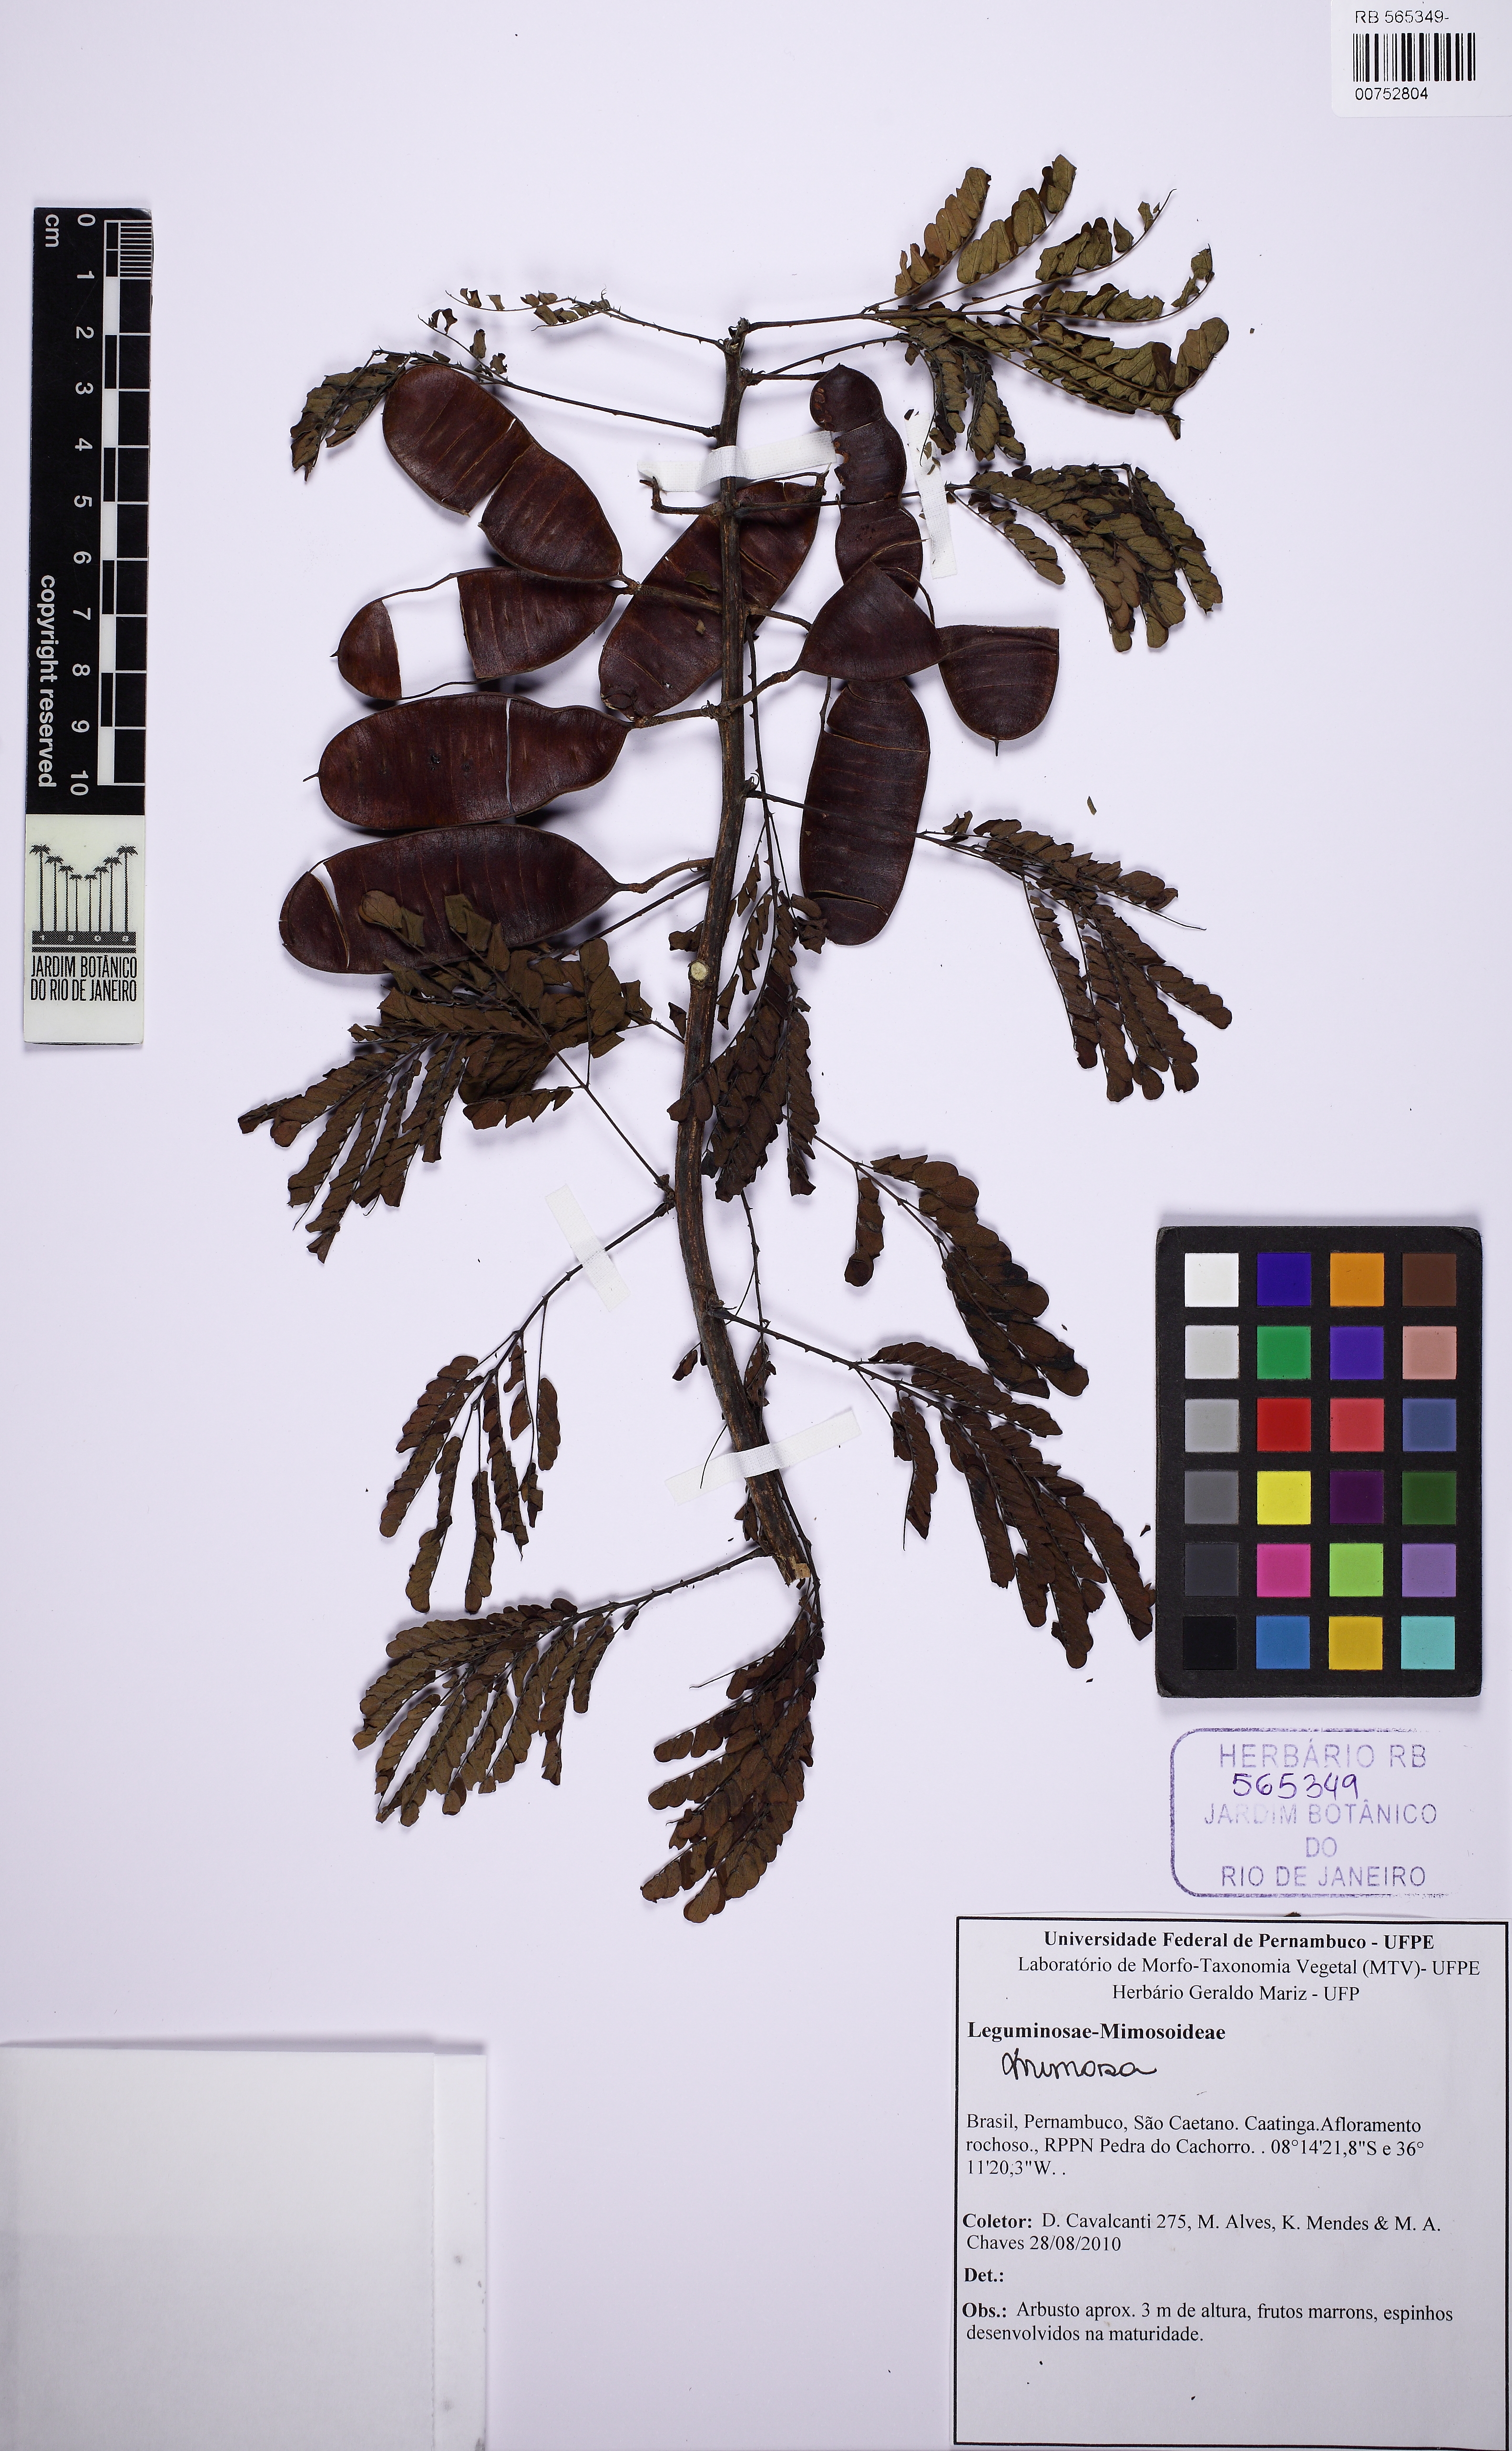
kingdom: Plantae
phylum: Tracheophyta
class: Magnoliopsida
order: Fabales
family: Fabaceae
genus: Mimosa
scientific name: Mimosa paraibana
